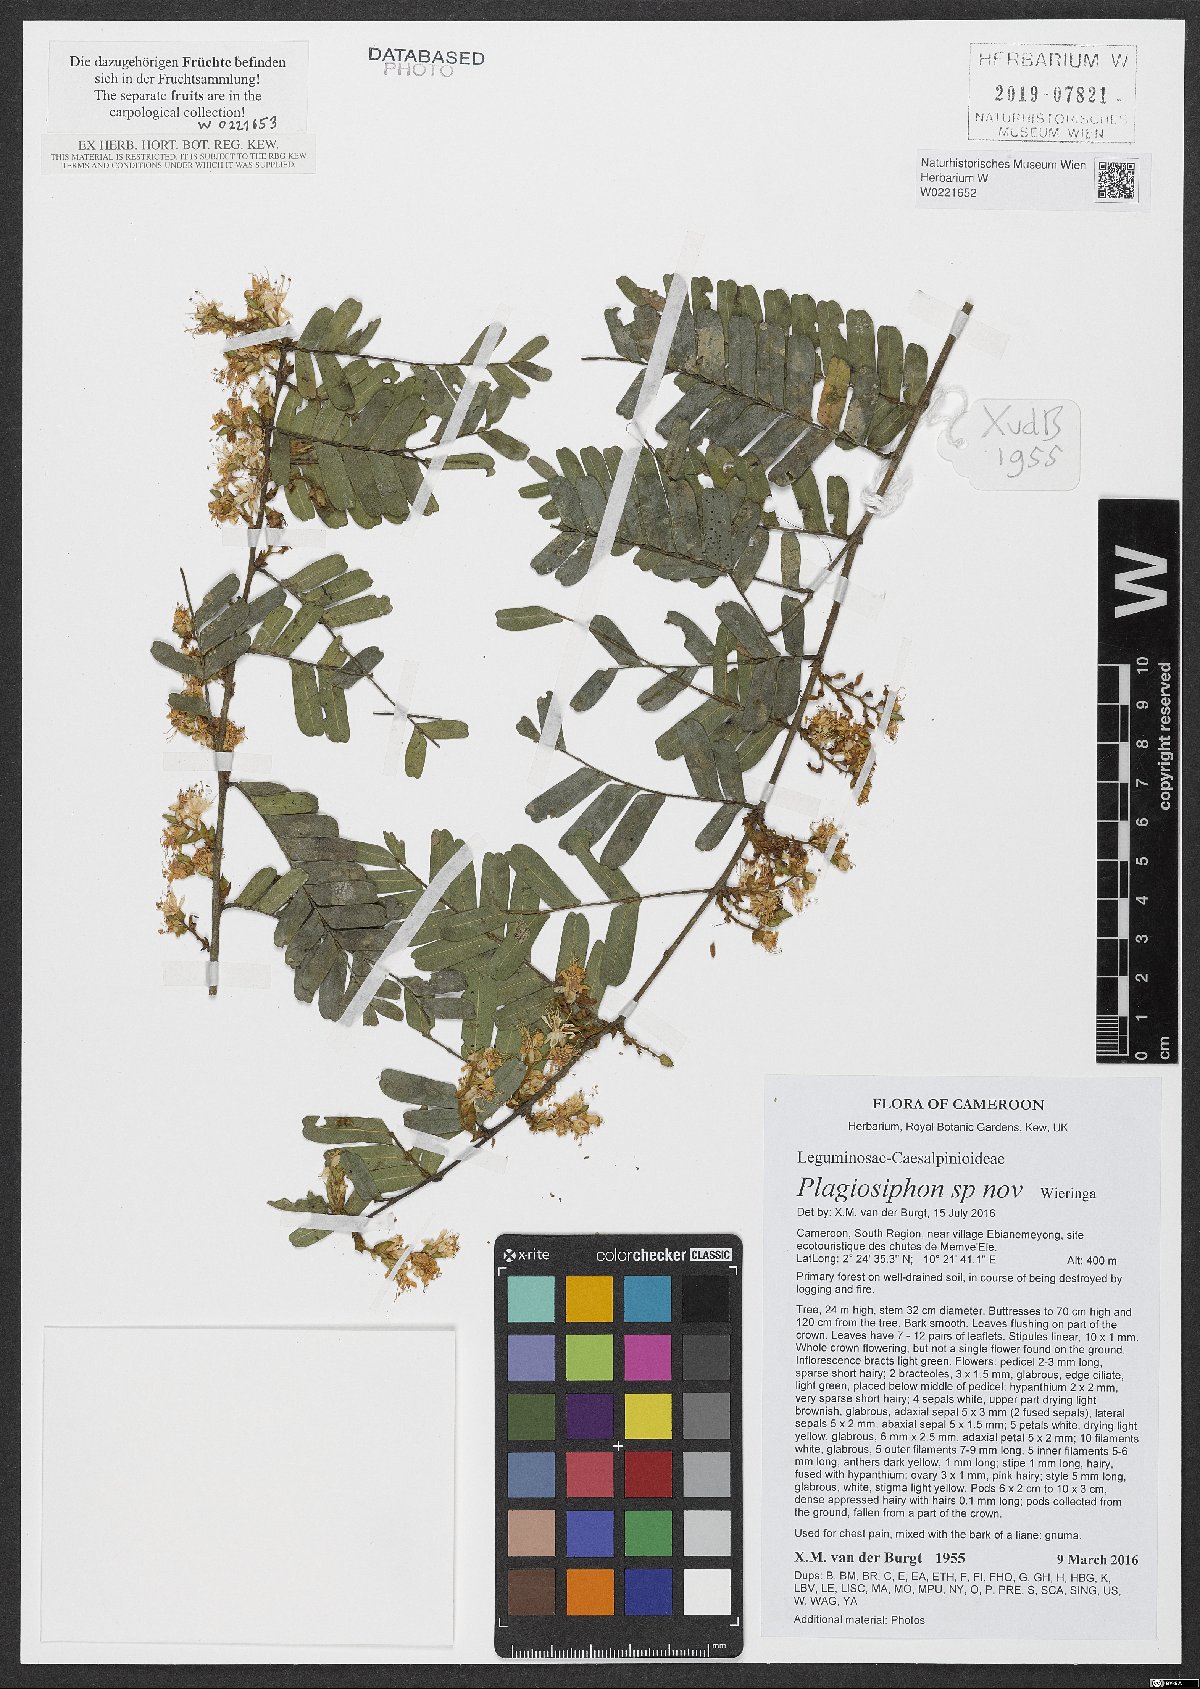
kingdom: Plantae
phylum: Tracheophyta
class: Magnoliopsida
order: Fabales
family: Fabaceae
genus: Plagiosiphon
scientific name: Plagiosiphon
